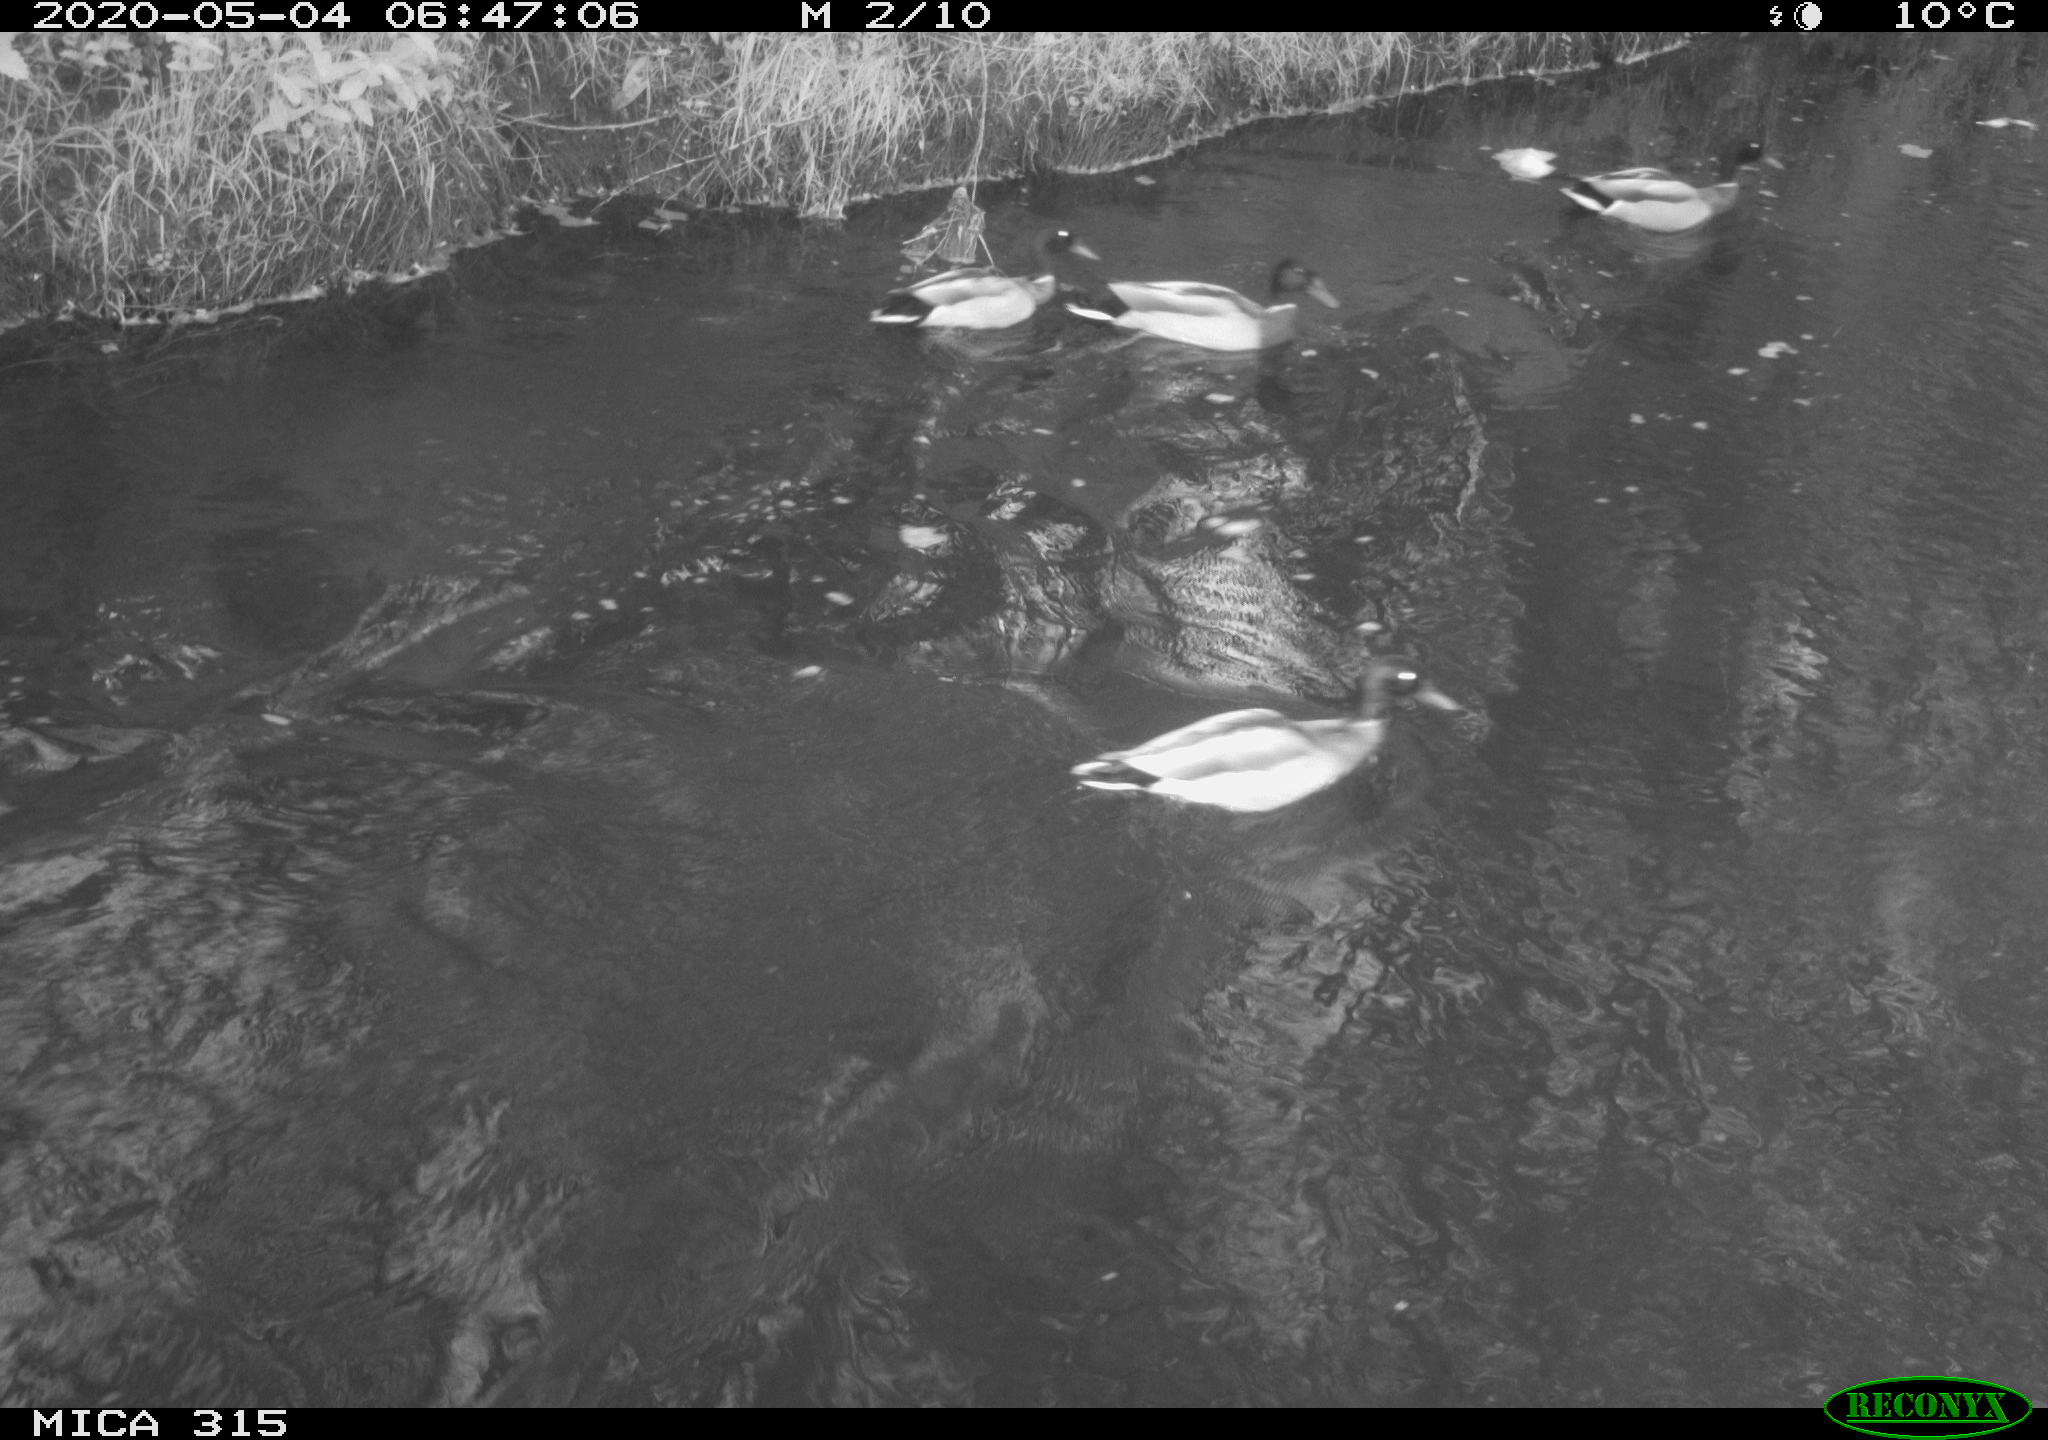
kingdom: Animalia
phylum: Chordata
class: Aves
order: Anseriformes
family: Anatidae
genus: Anas
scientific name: Anas platyrhynchos
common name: Mallard
